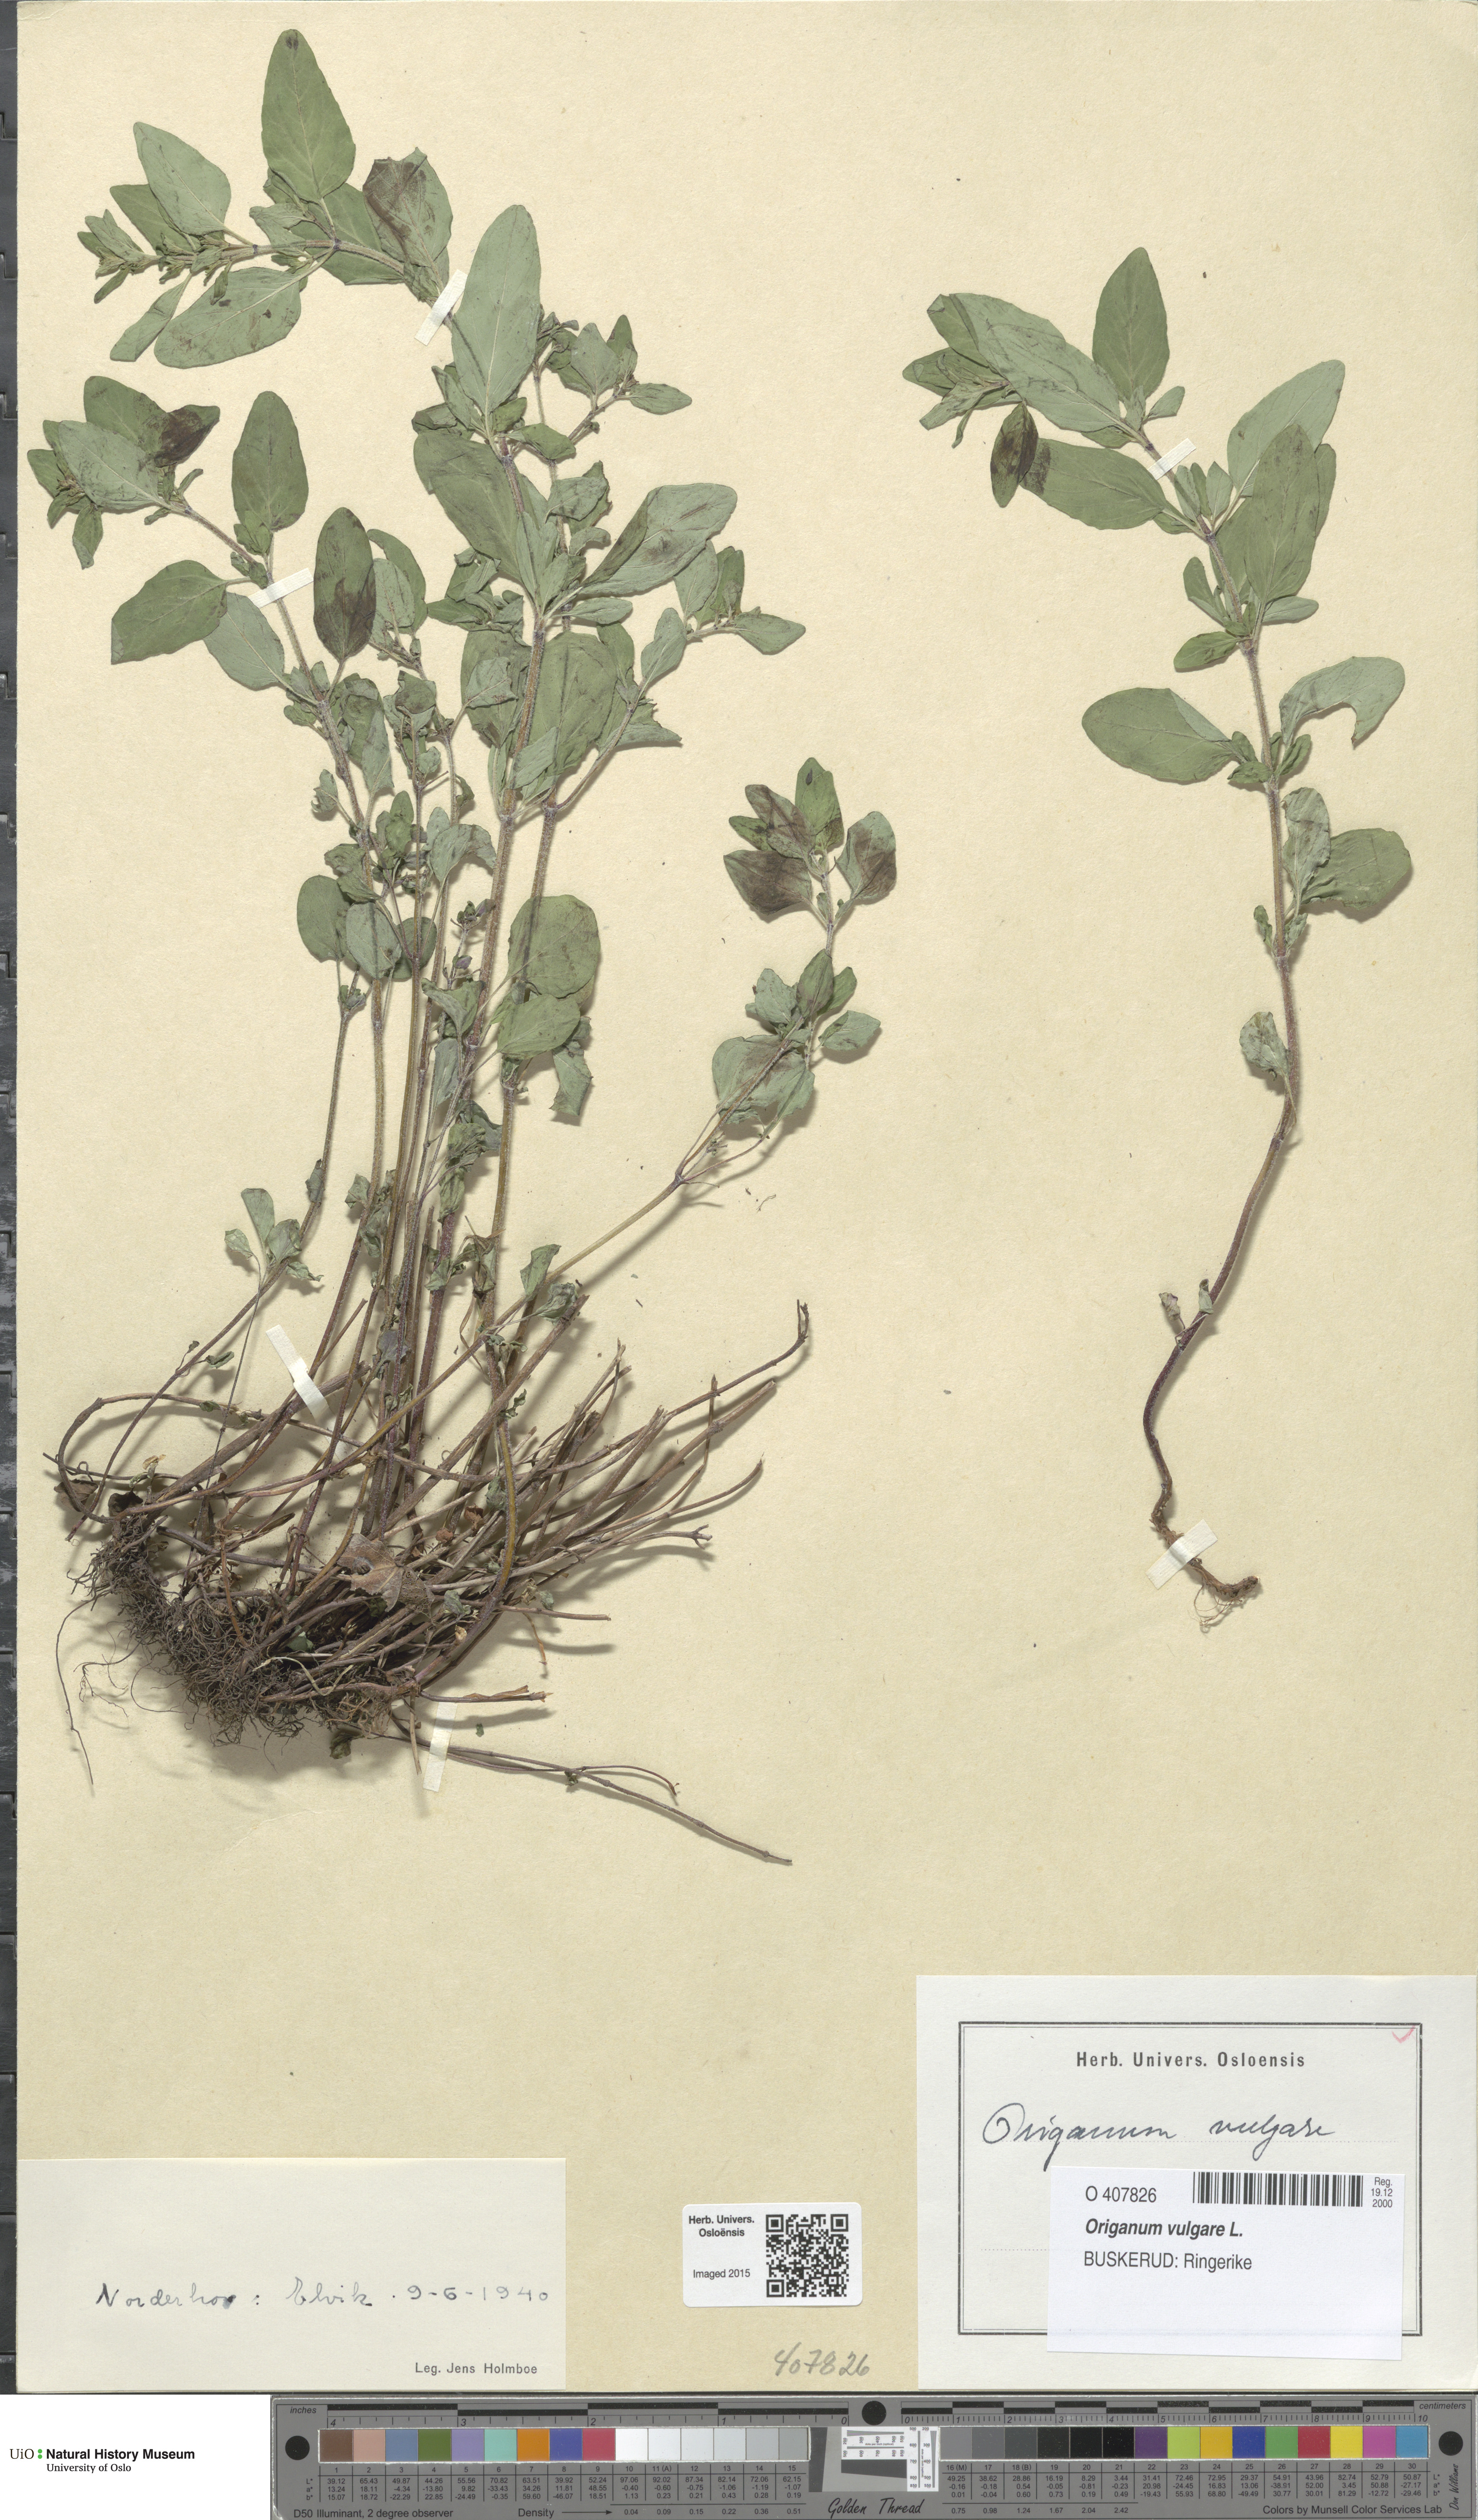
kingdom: Plantae
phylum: Tracheophyta
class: Magnoliopsida
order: Lamiales
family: Lamiaceae
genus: Origanum
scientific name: Origanum vulgare
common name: Wild marjoram
